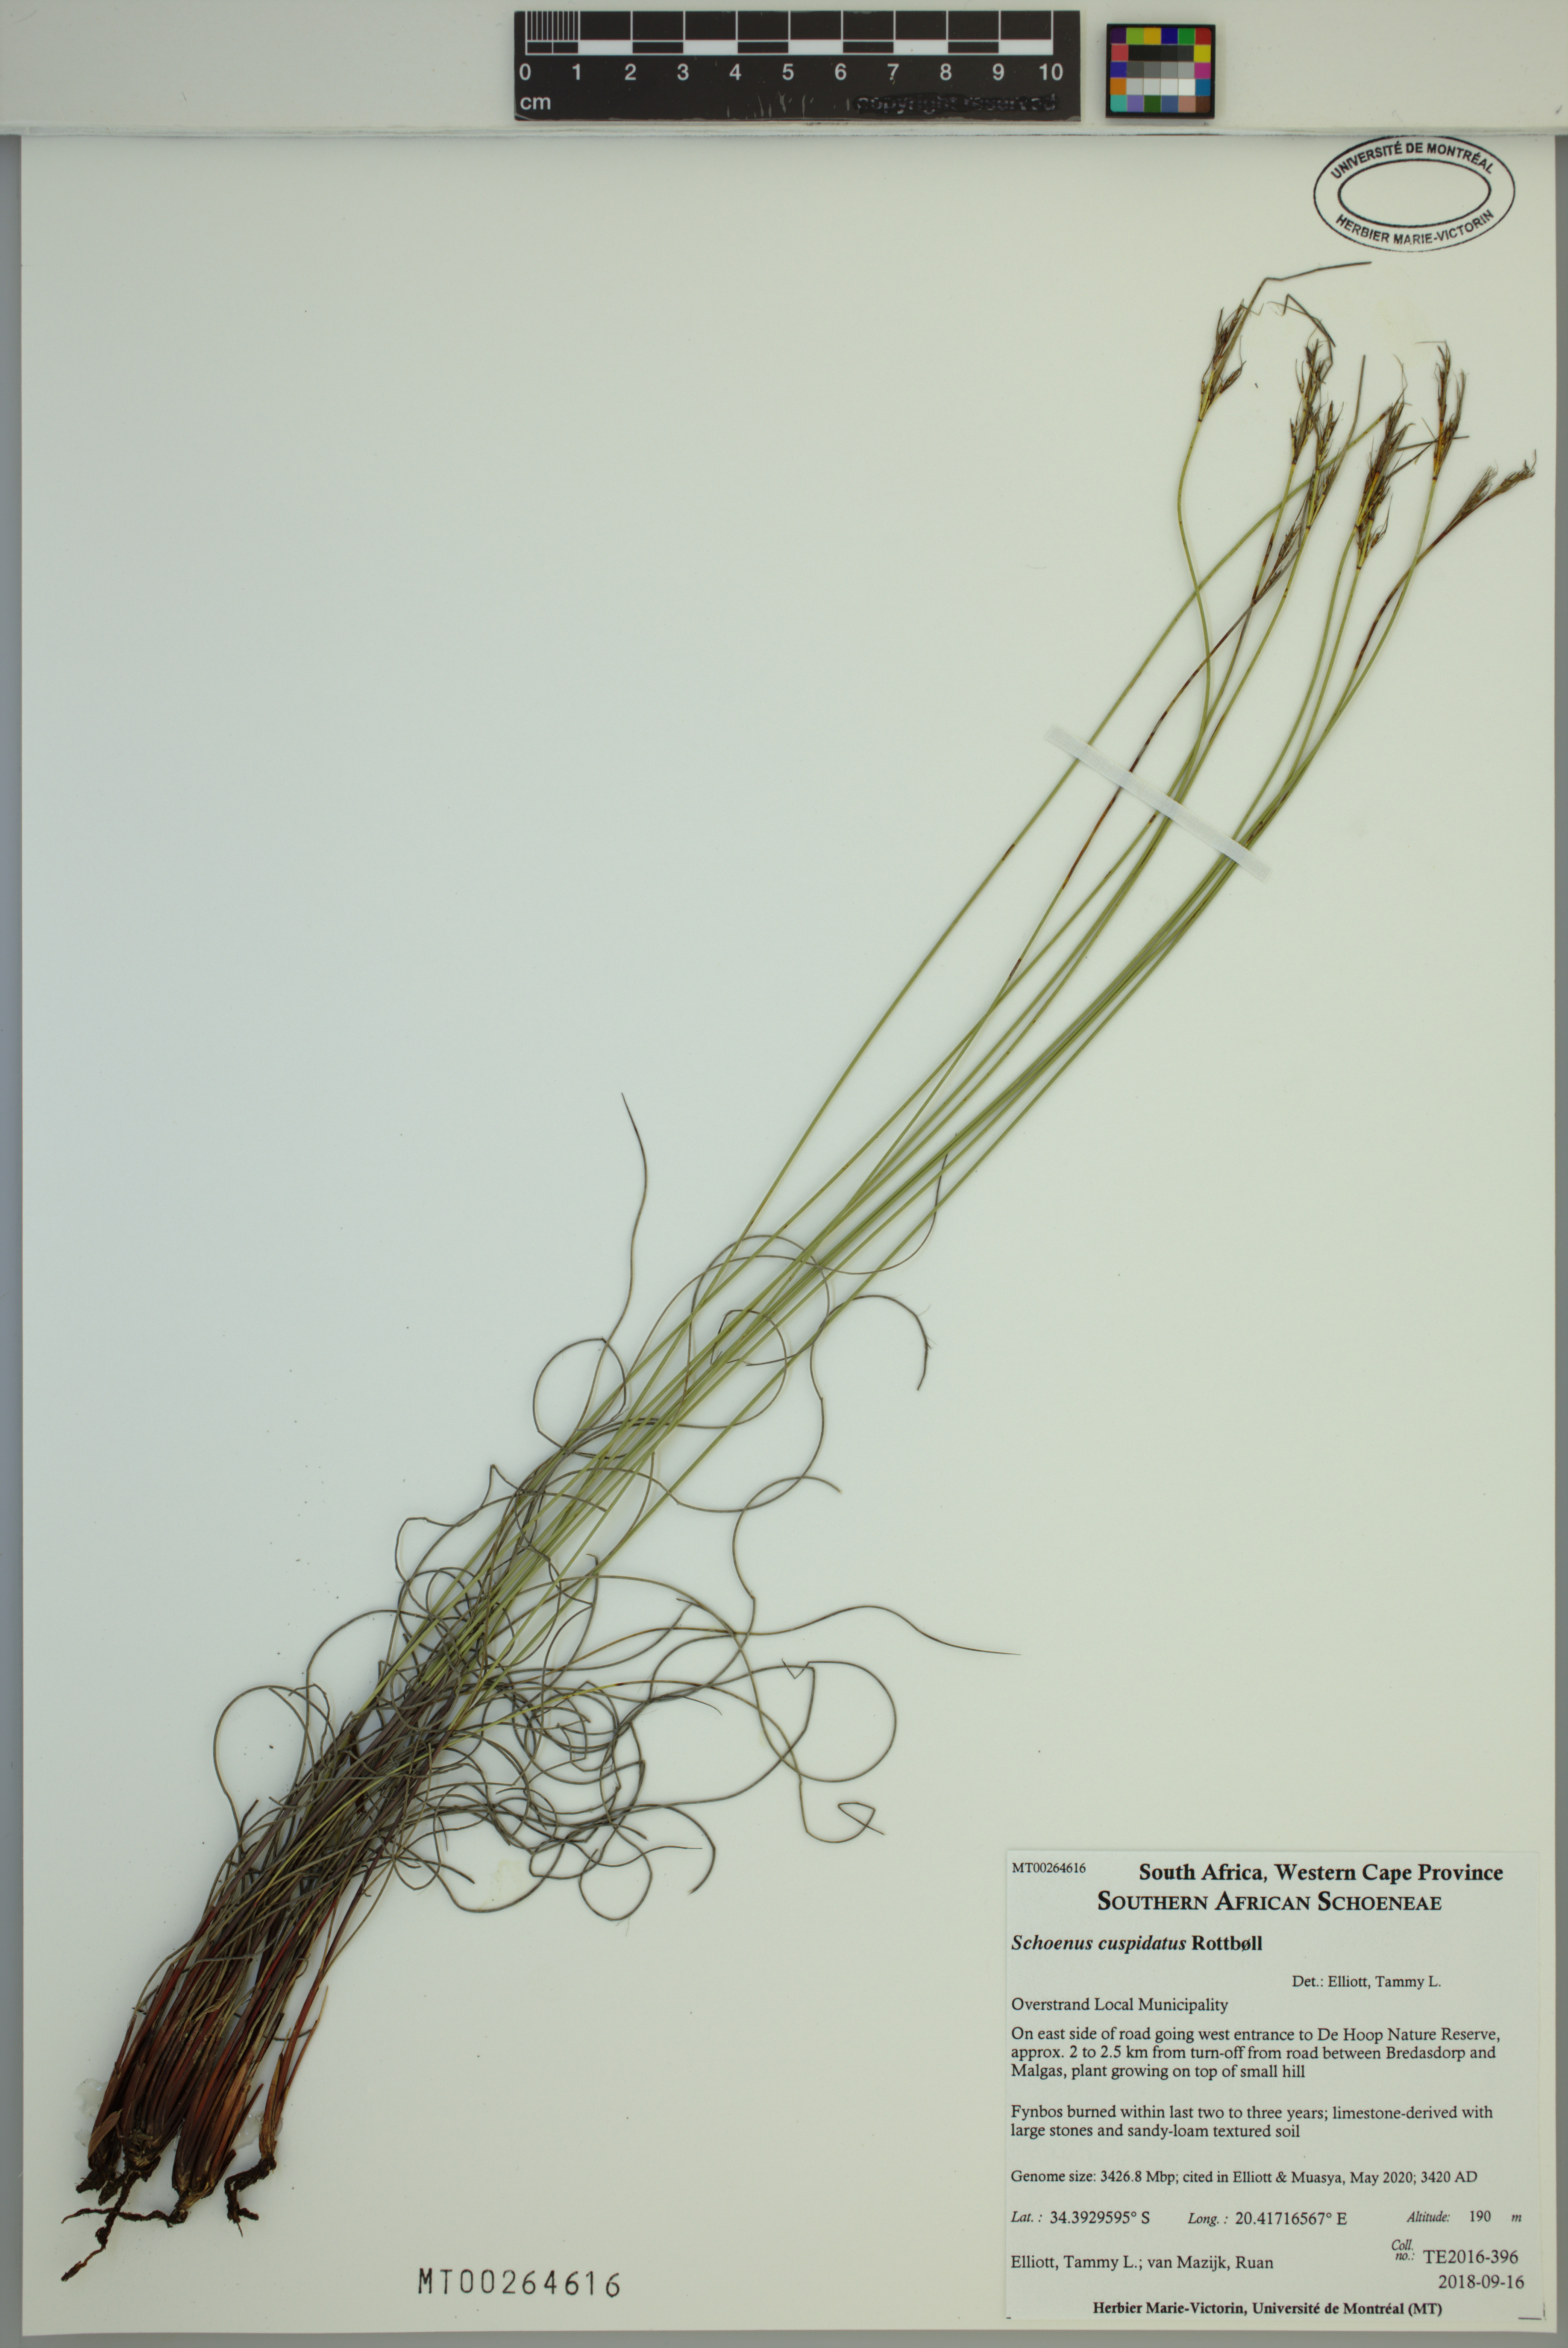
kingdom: Plantae
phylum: Tracheophyta
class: Liliopsida
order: Poales
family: Cyperaceae
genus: Schoenus
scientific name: Schoenus cuspidatus
